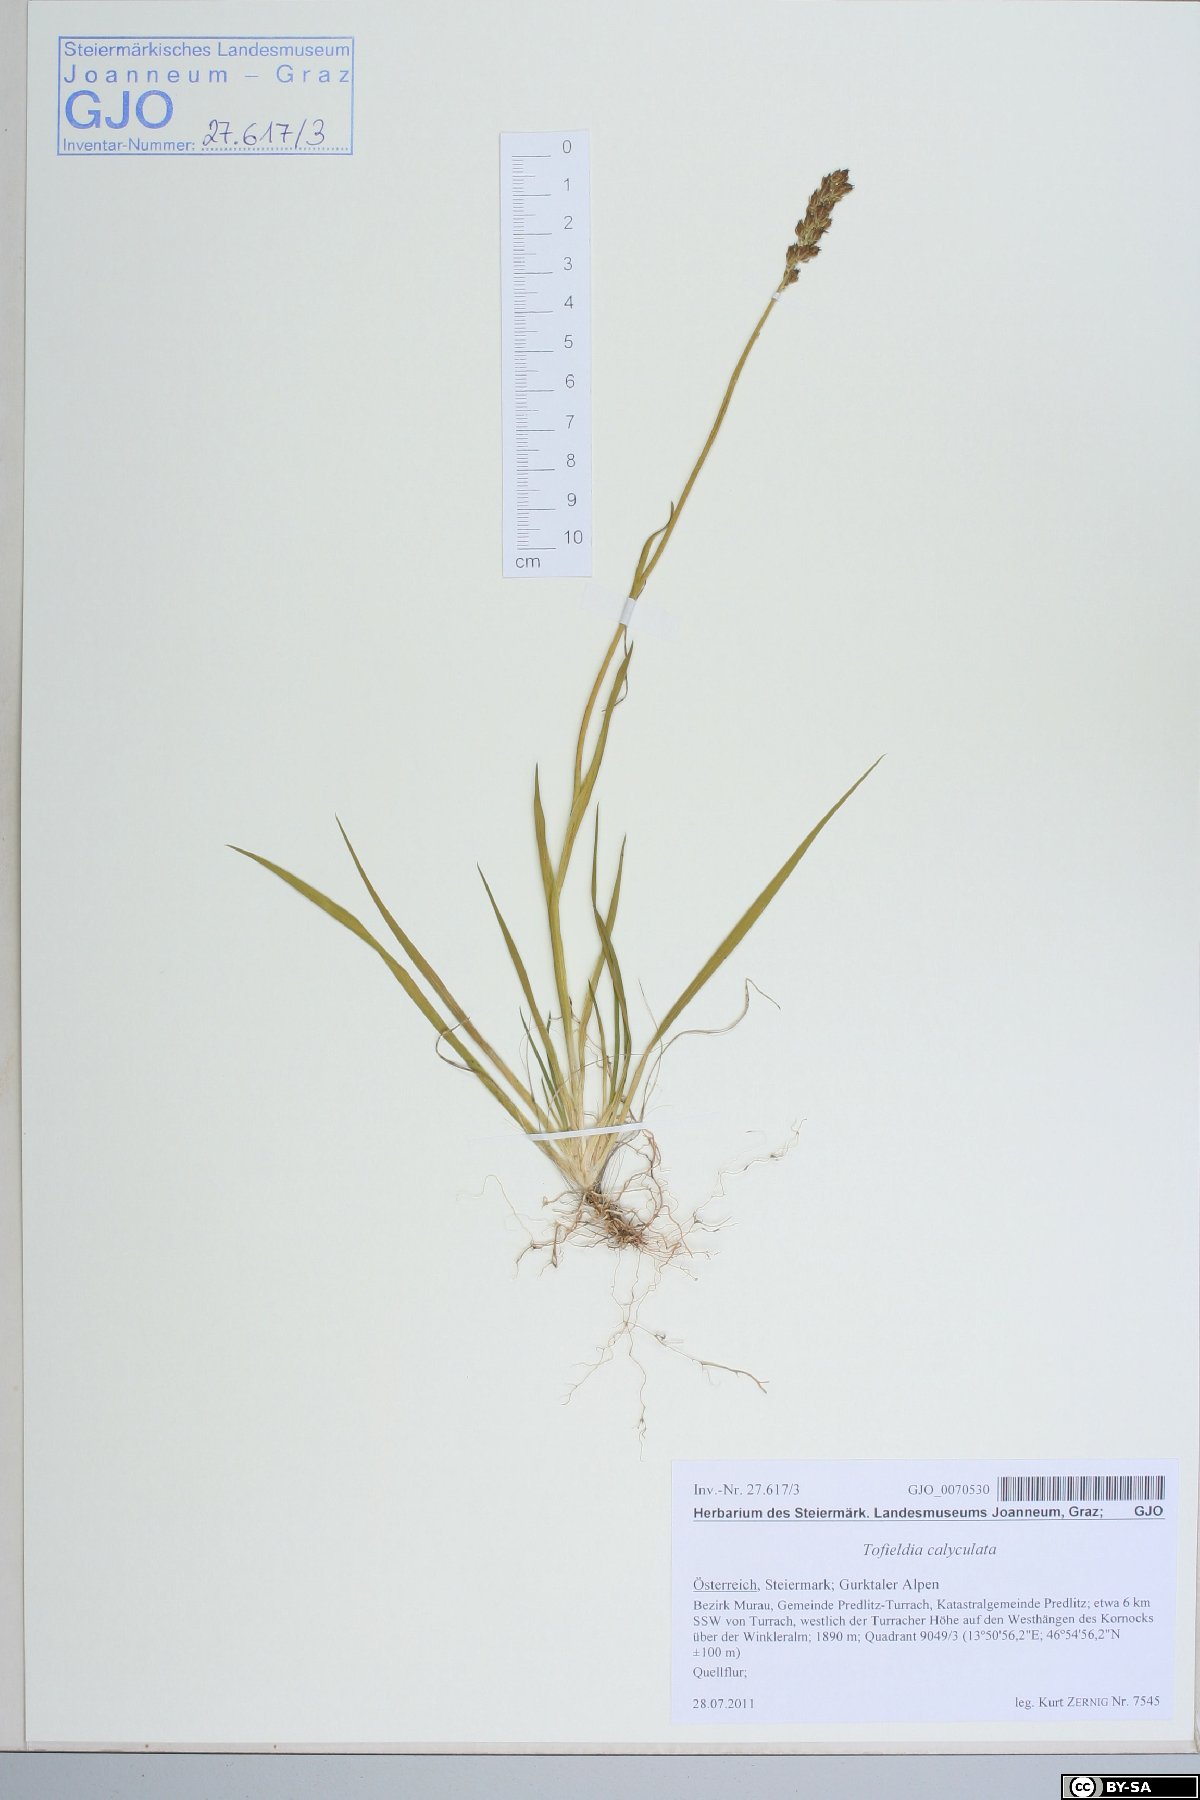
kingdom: Plantae
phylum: Tracheophyta
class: Liliopsida
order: Alismatales
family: Tofieldiaceae
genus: Tofieldia
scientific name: Tofieldia calyculata
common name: German-asphodel
